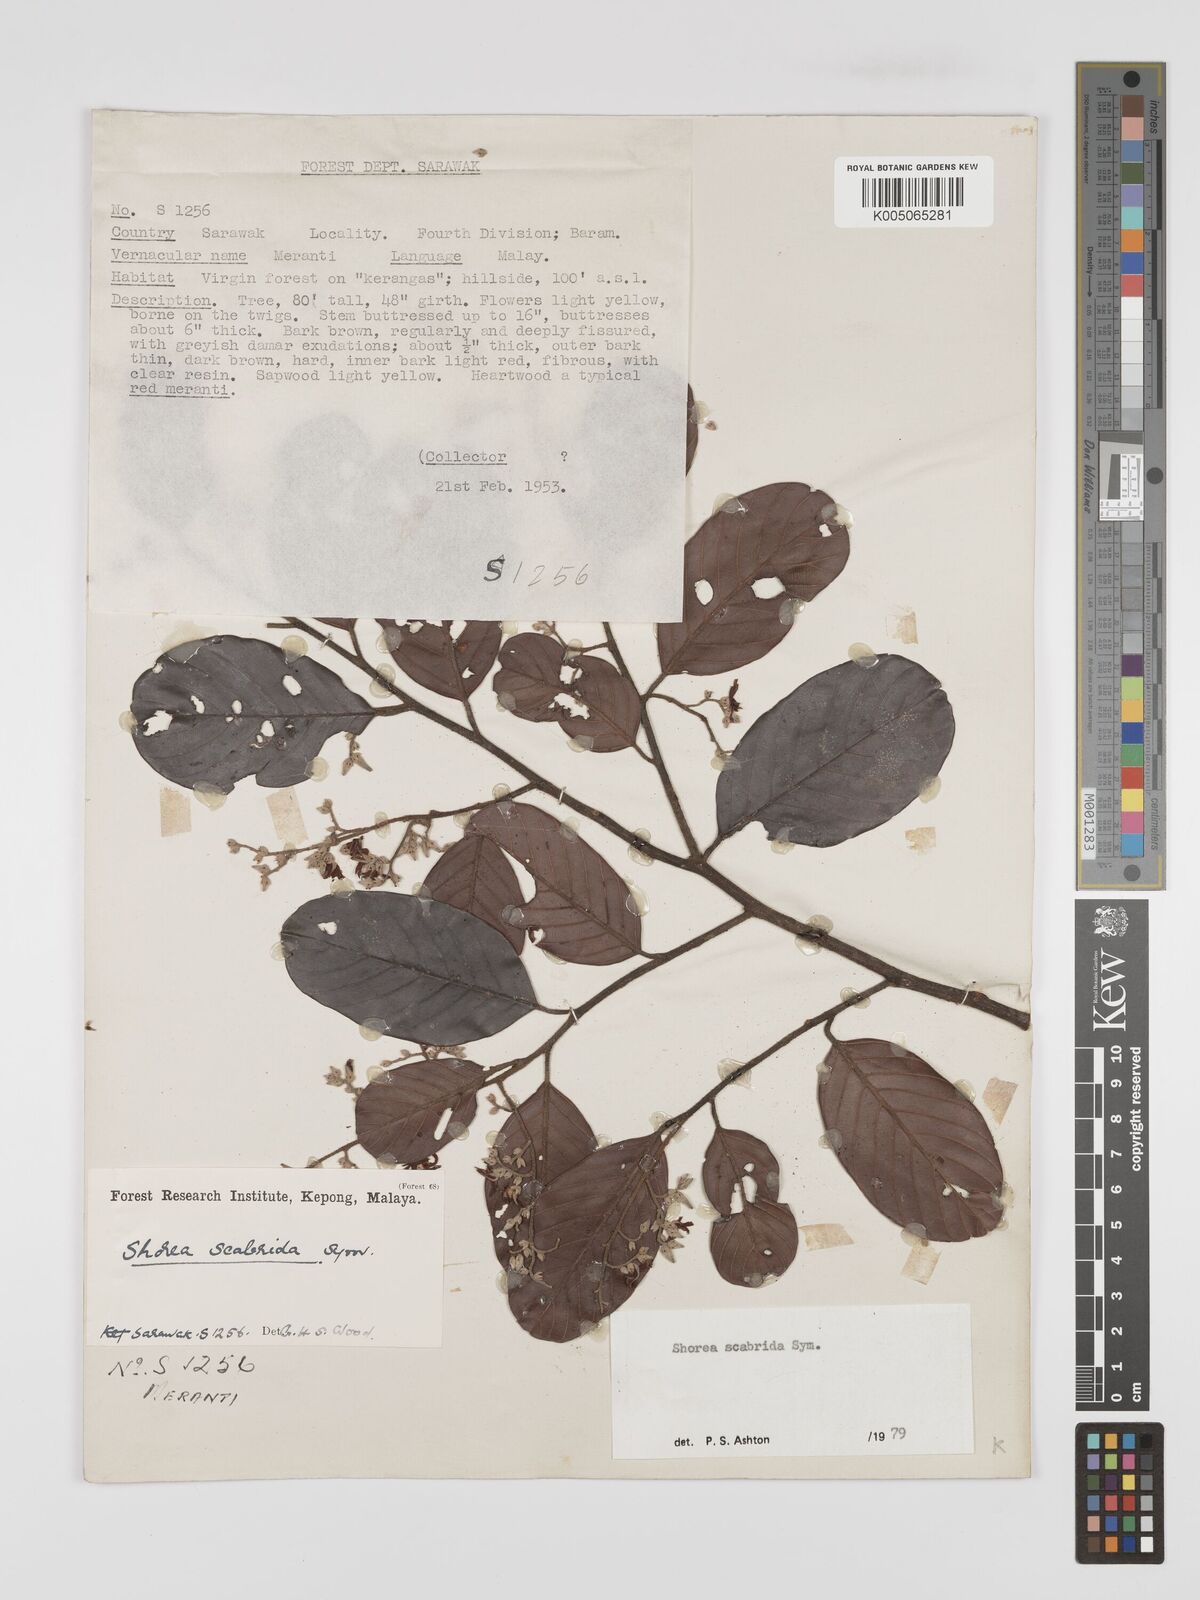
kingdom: Plantae
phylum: Tracheophyta
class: Magnoliopsida
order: Malvales
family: Dipterocarpaceae
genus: Shorea
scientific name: Shorea scabrida
